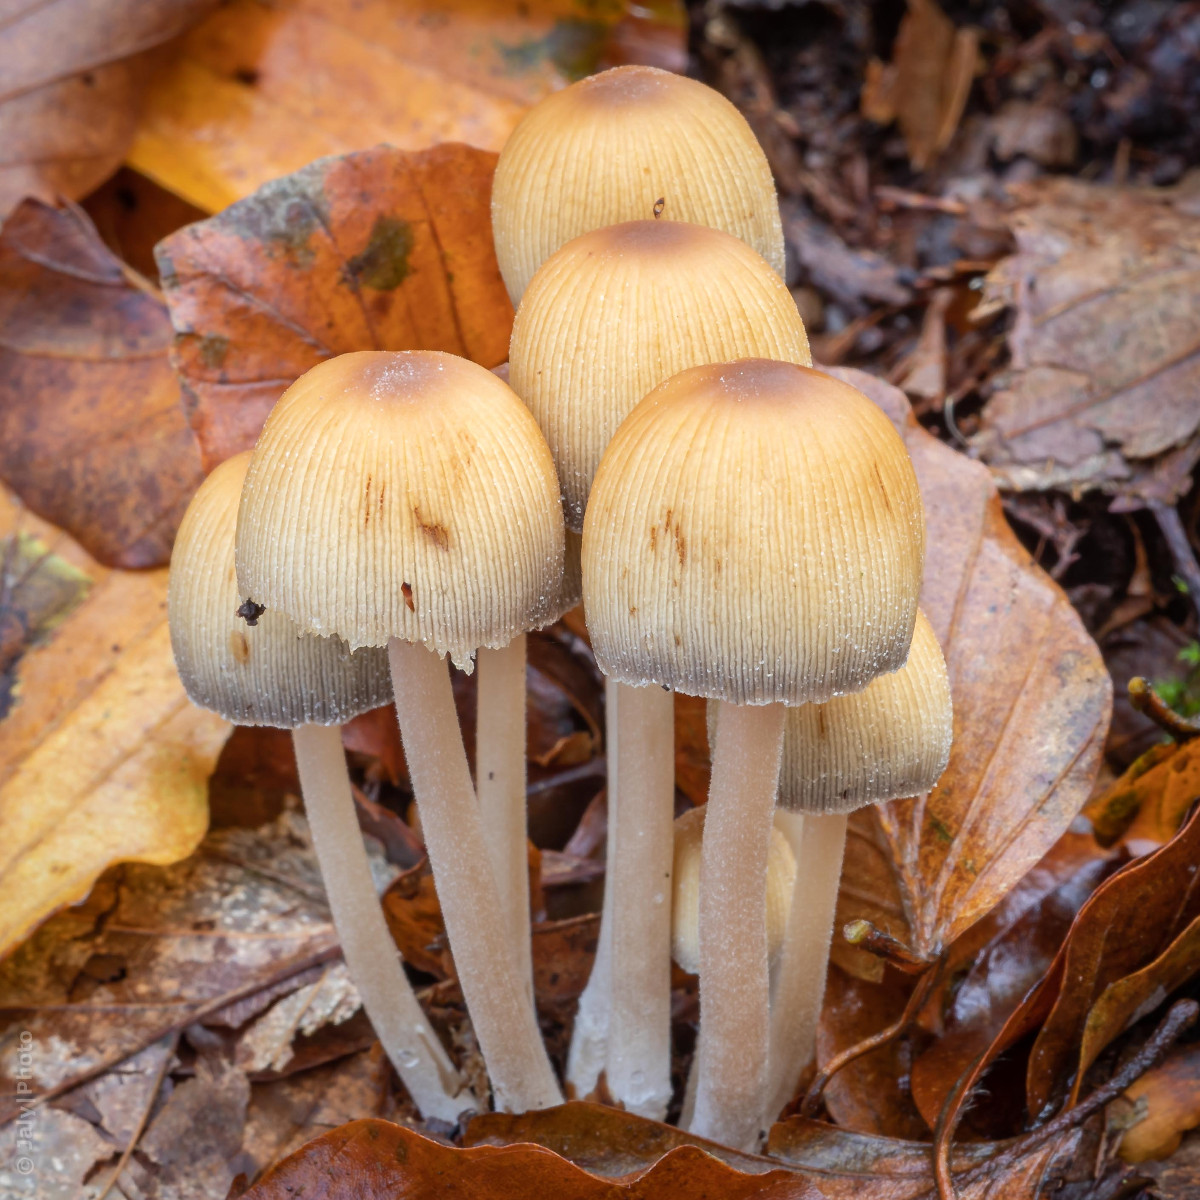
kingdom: Fungi
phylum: Basidiomycota
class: Agaricomycetes
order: Agaricales
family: Psathyrellaceae
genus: Coprinellus
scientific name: Coprinellus micaceus
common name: glimmer-blækhat
